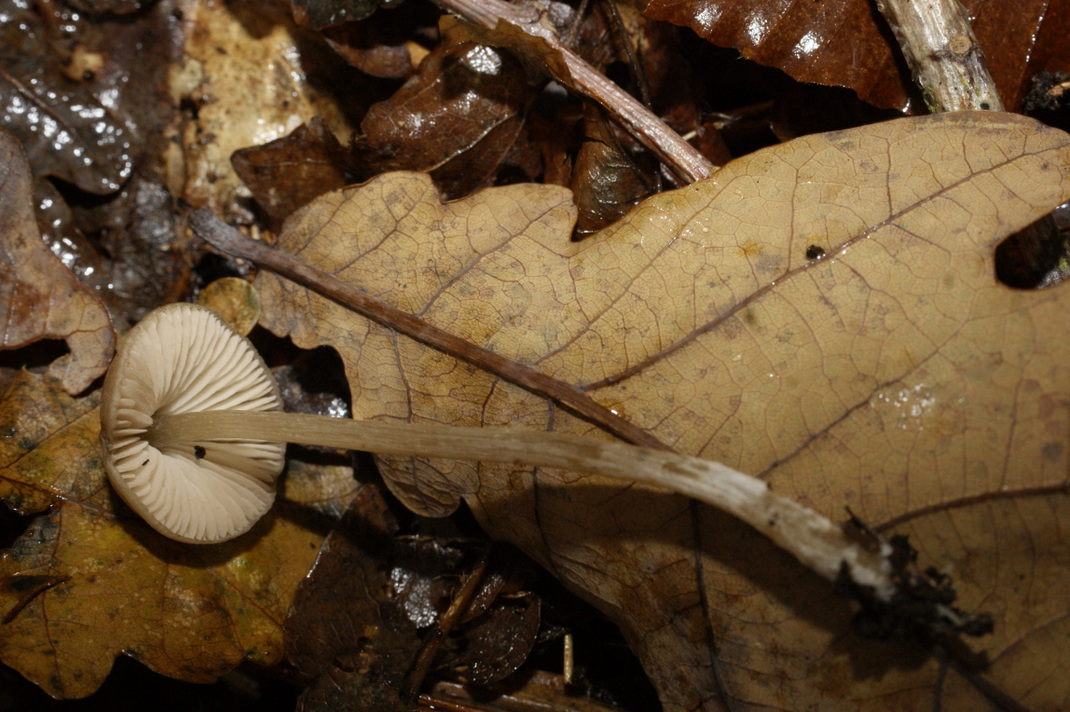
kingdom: Fungi
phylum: Basidiomycota
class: Agaricomycetes
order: Agaricales
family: Entolomataceae
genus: Entoloma
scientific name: Entoloma
